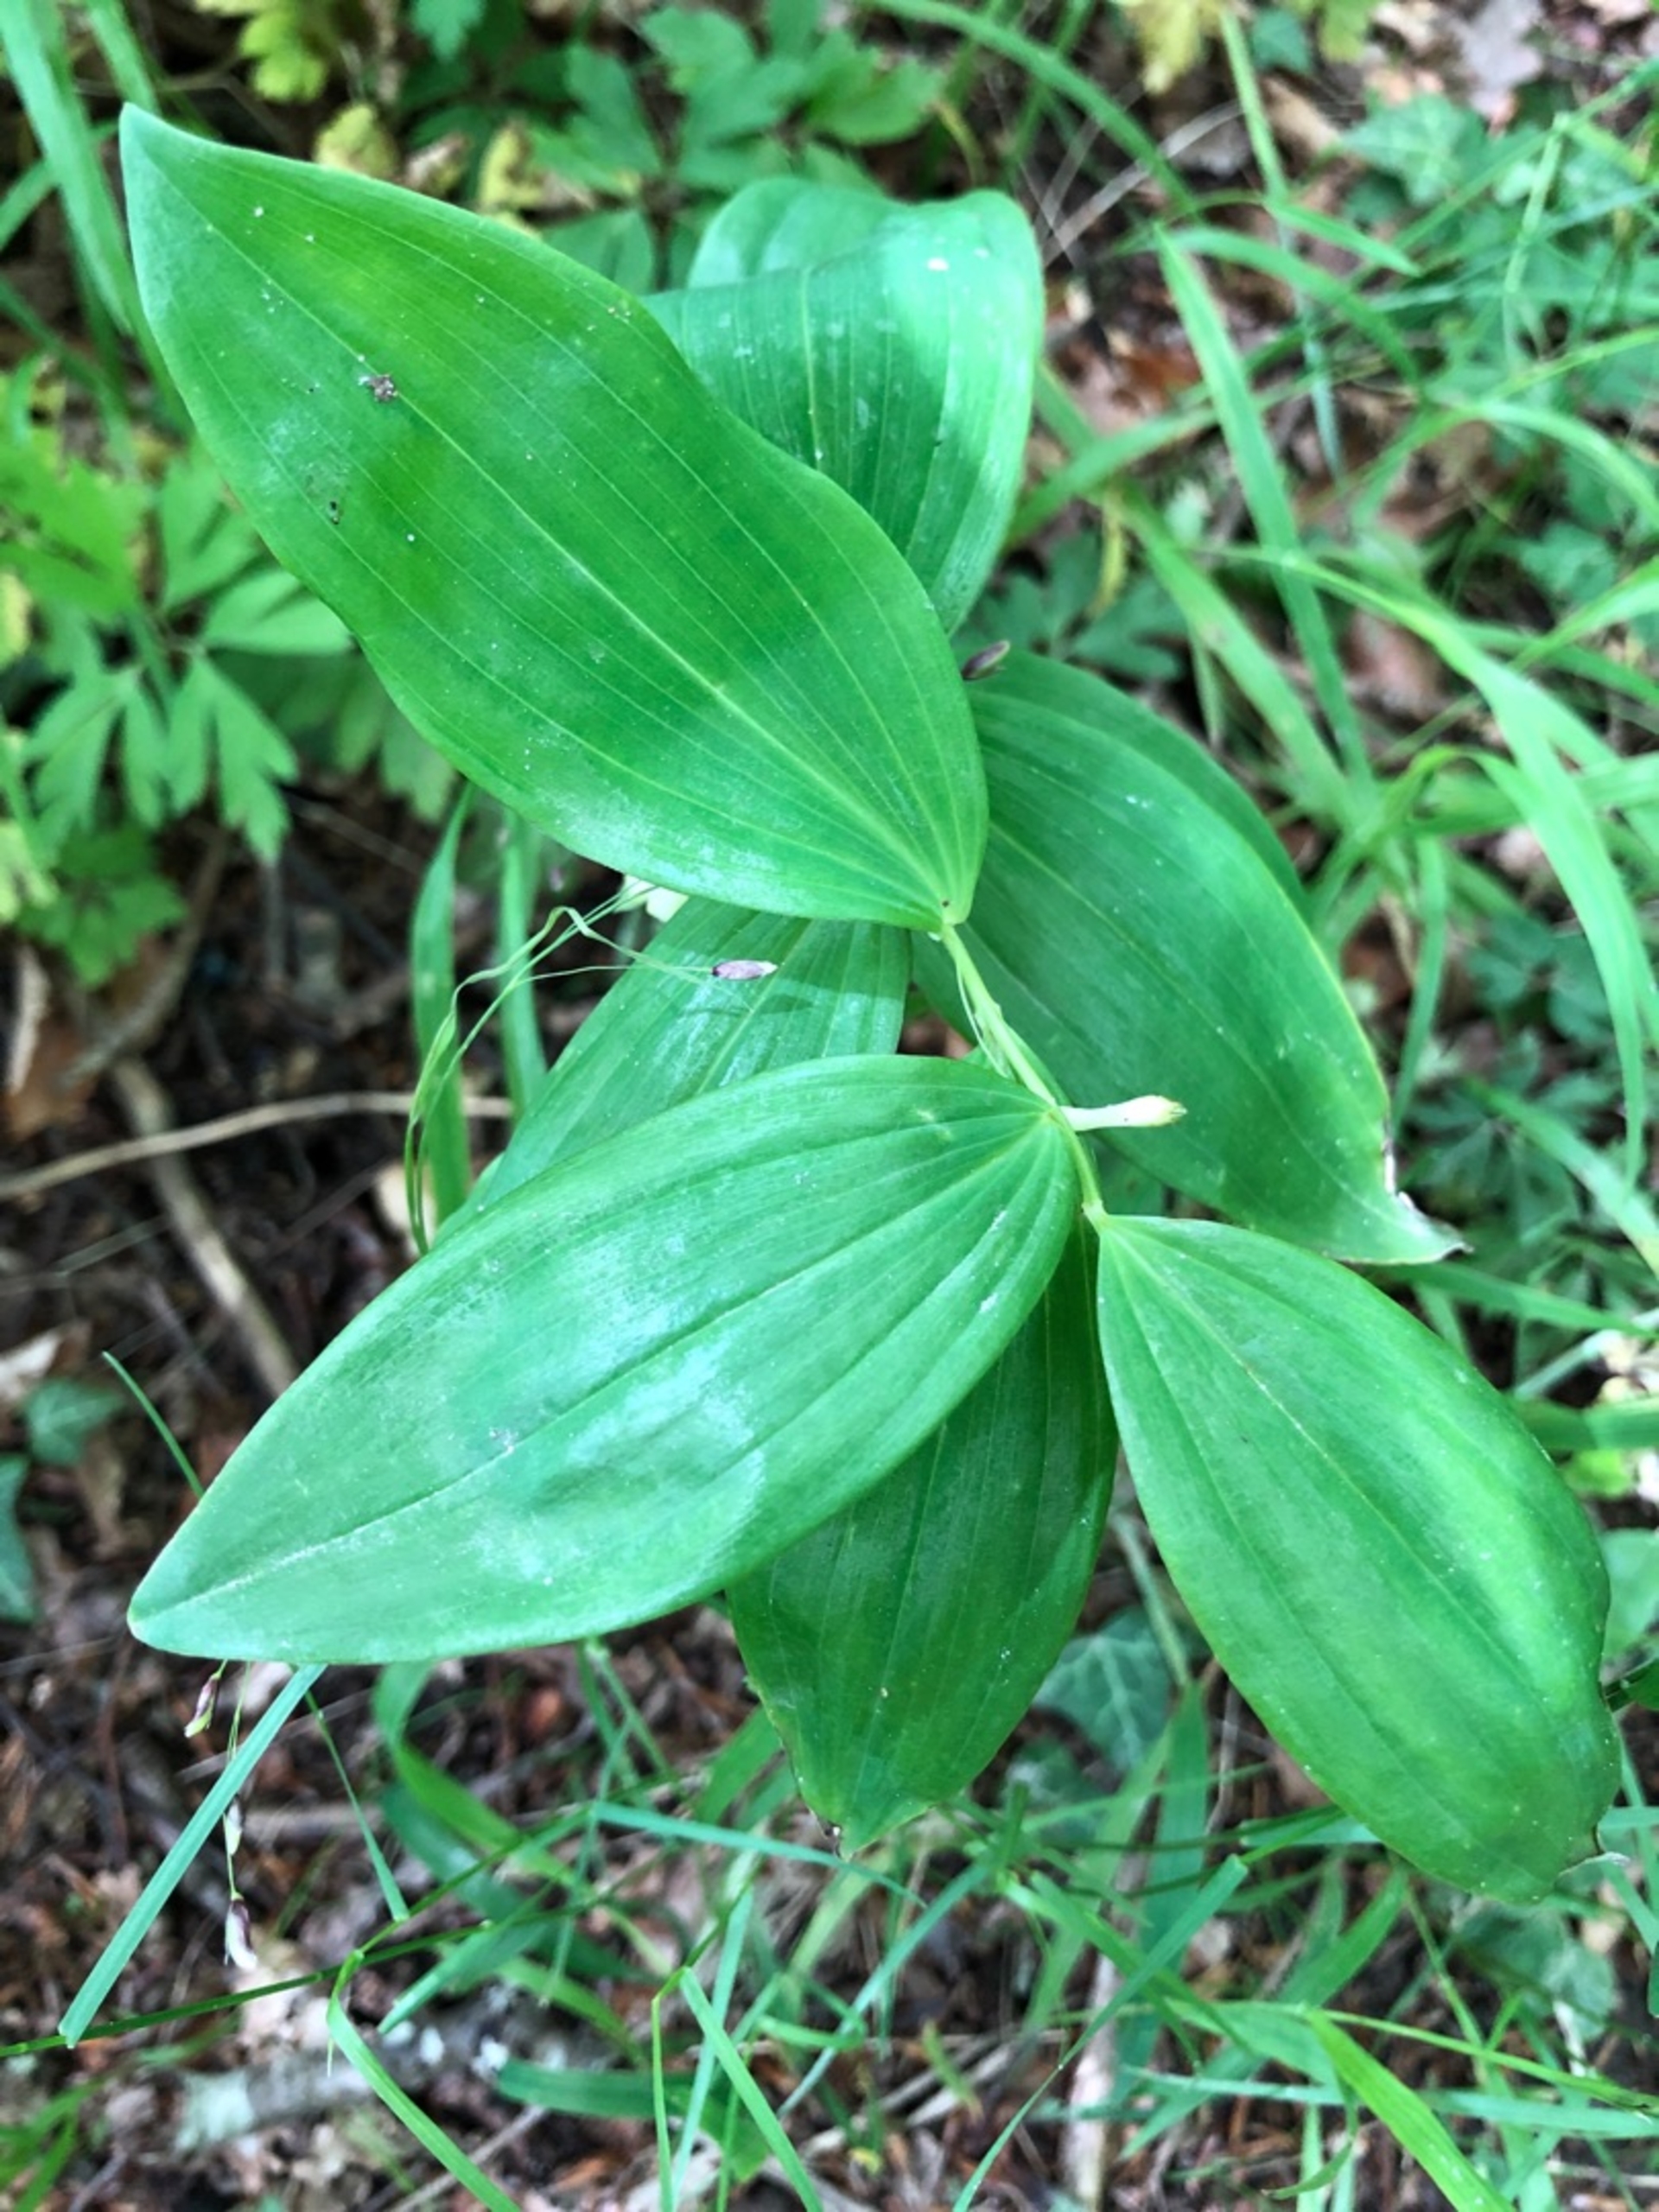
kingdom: Plantae
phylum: Tracheophyta
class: Liliopsida
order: Asparagales
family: Asparagaceae
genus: Polygonatum
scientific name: Polygonatum multiflorum
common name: Stor konval
